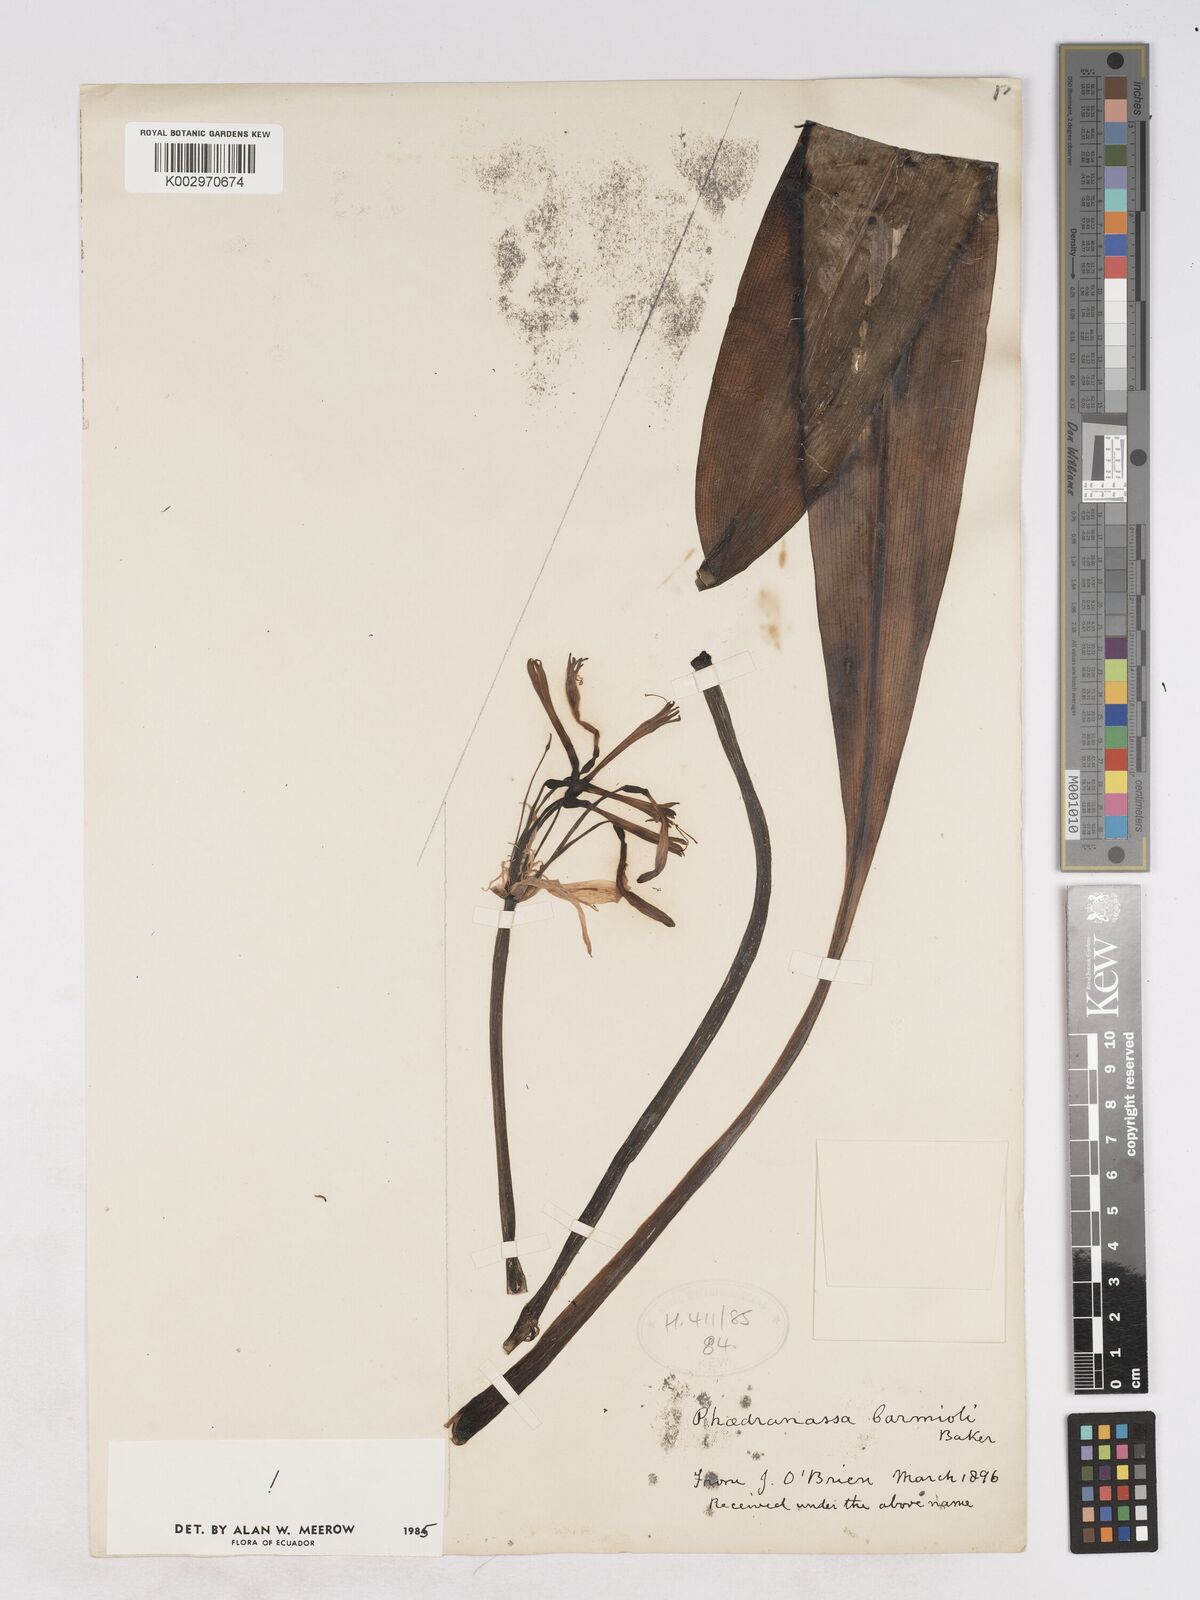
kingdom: Plantae
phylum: Tracheophyta
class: Liliopsida
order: Asparagales
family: Amaryllidaceae
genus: Phaedranassa
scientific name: Phaedranassa carmiolii
